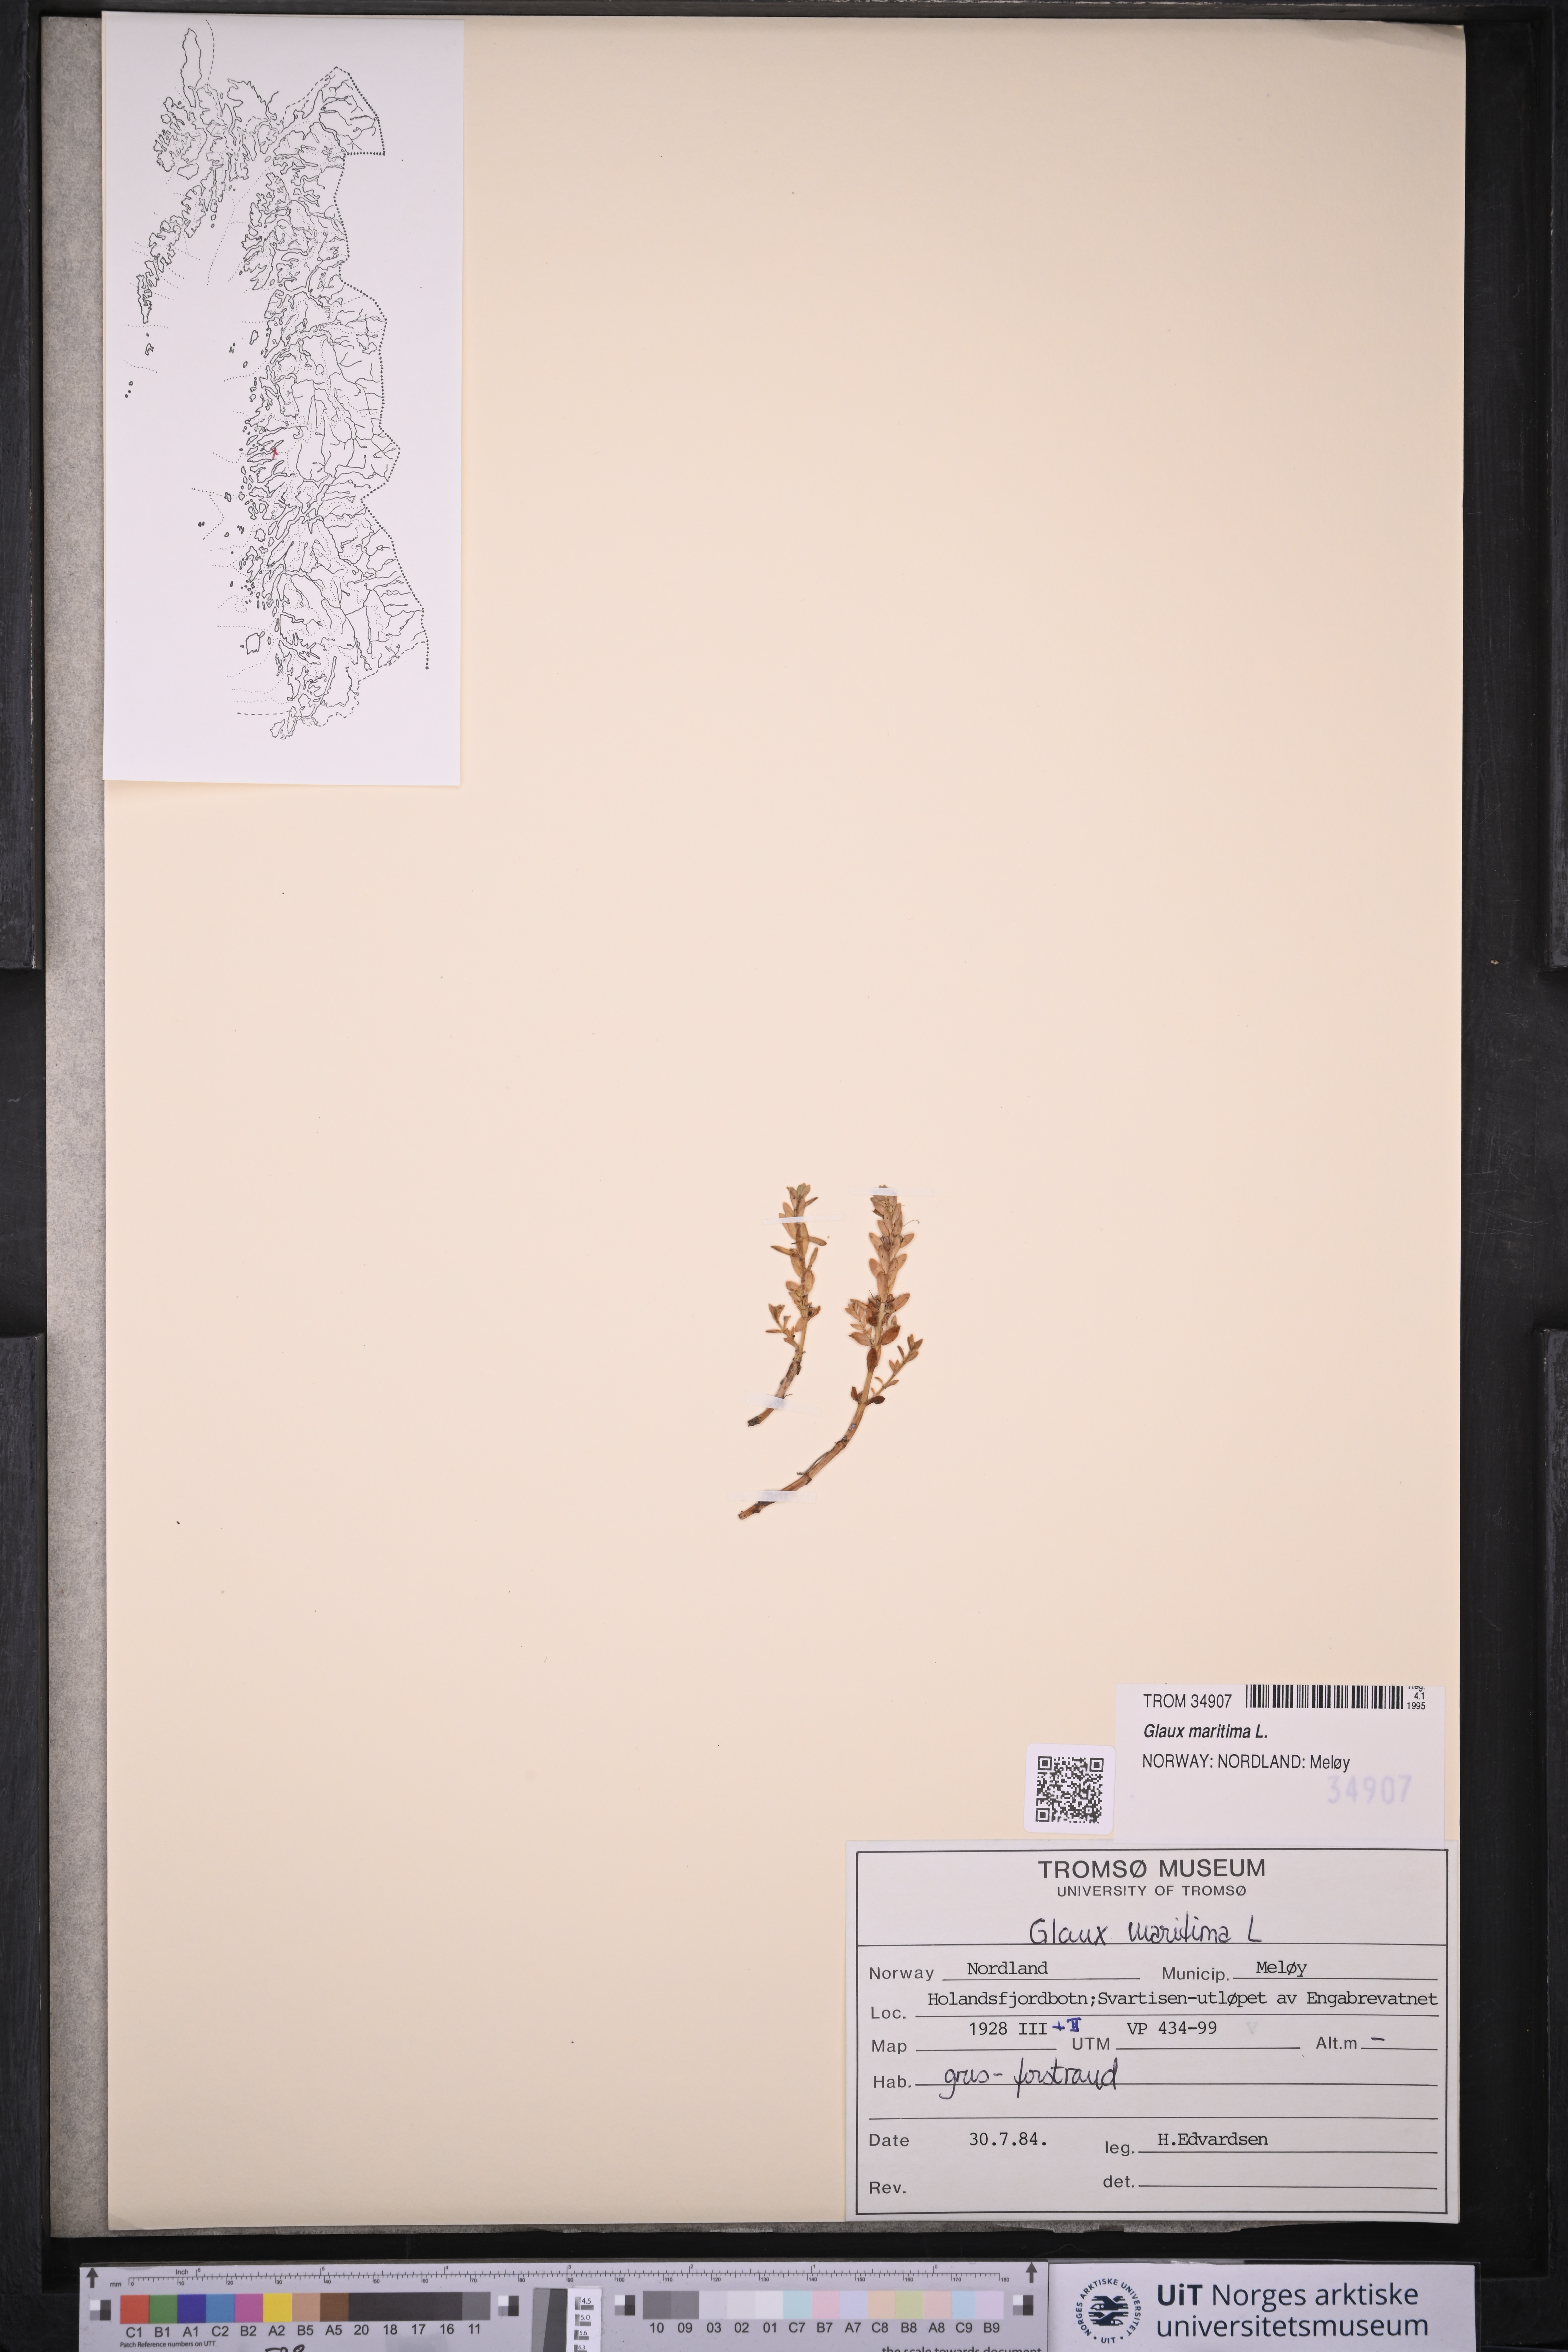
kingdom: Plantae
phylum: Tracheophyta
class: Magnoliopsida
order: Ericales
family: Primulaceae
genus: Lysimachia
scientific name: Lysimachia maritima
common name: Sea milkwort
